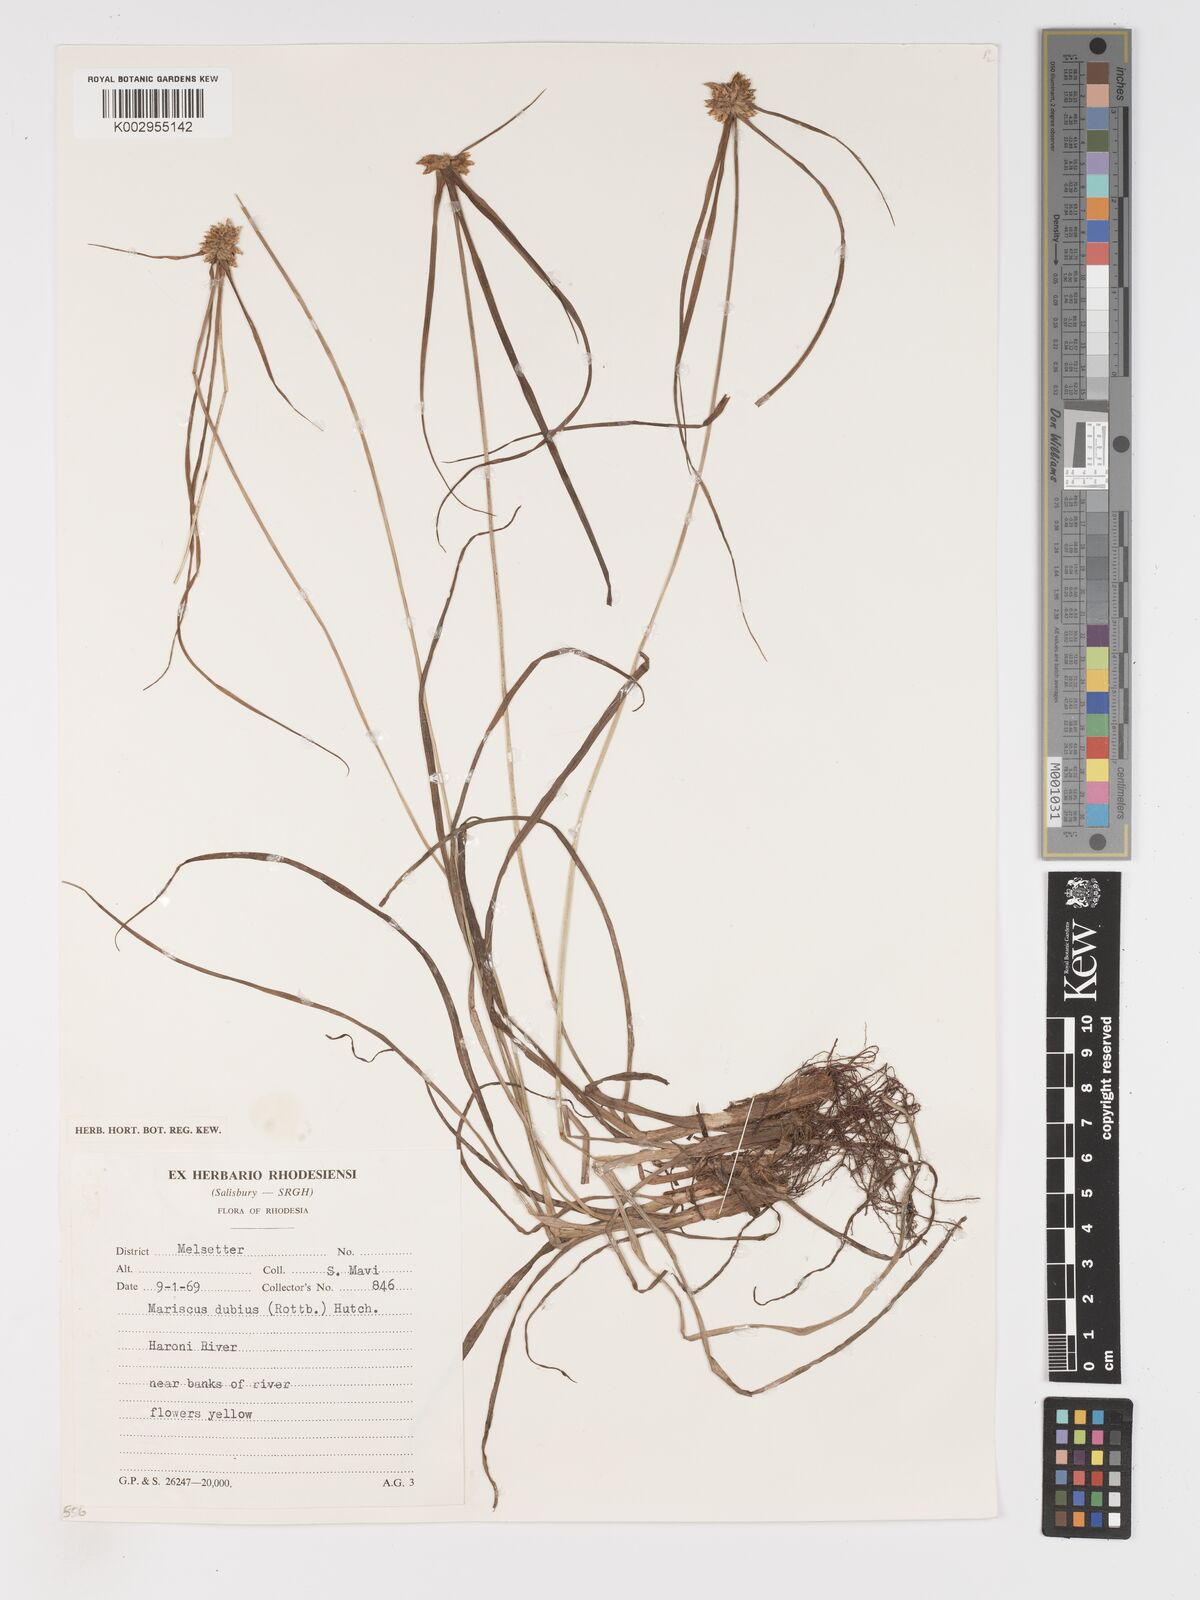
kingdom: Plantae
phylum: Tracheophyta
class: Liliopsida
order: Poales
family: Cyperaceae
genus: Cyperus
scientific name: Cyperus dubius
